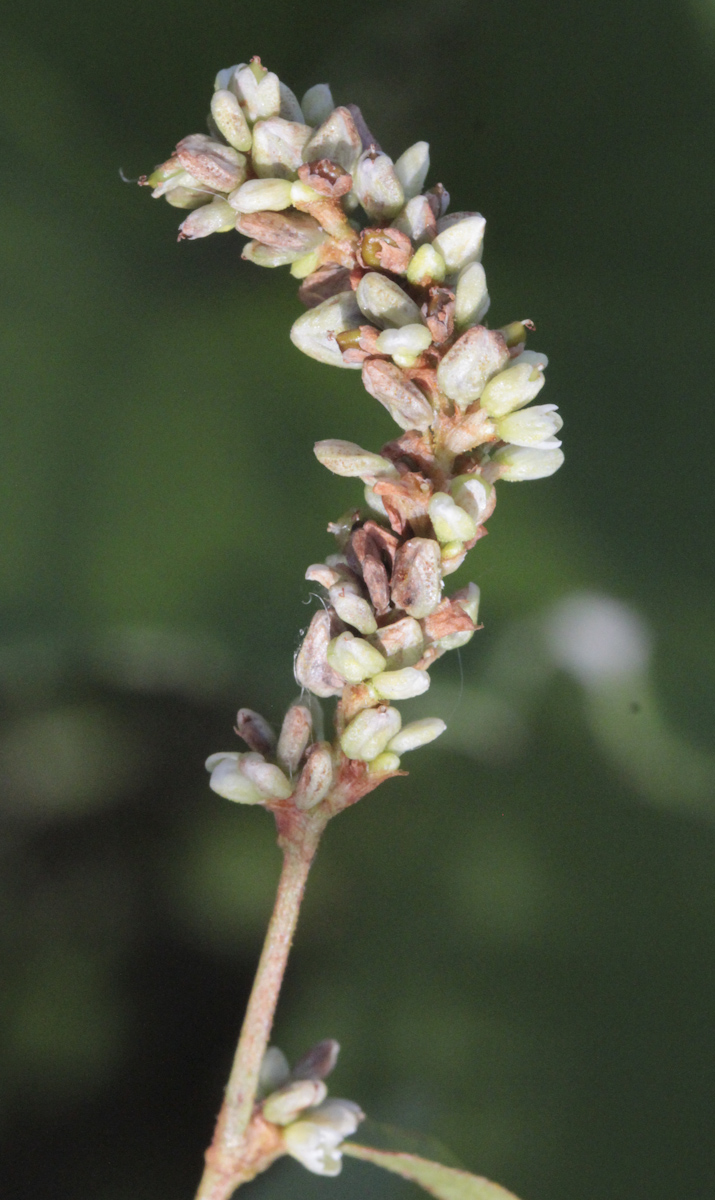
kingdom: Plantae
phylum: Tracheophyta
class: Magnoliopsida
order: Caryophyllales
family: Polygonaceae
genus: Persicaria
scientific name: Persicaria lapathifolia
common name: Curlytop knotweed
